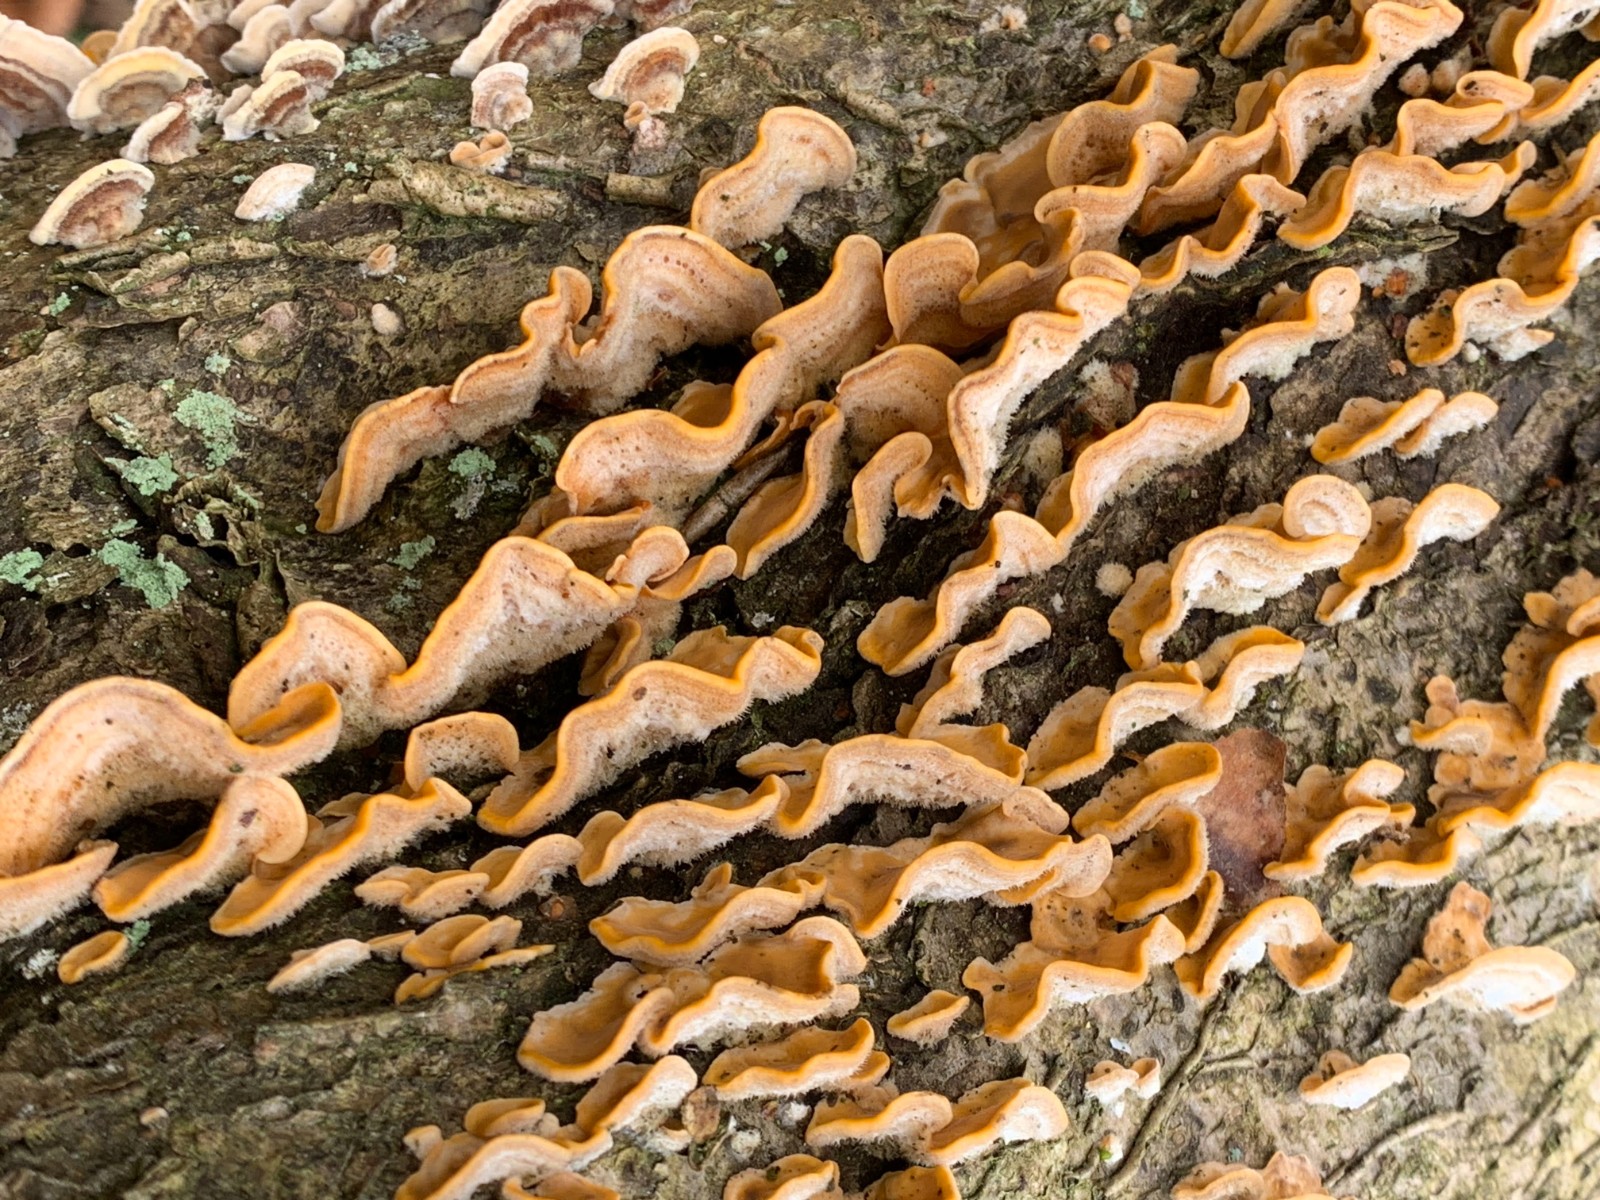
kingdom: Fungi
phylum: Basidiomycota
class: Agaricomycetes
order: Russulales
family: Stereaceae
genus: Stereum
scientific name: Stereum hirsutum
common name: håret lædersvamp
